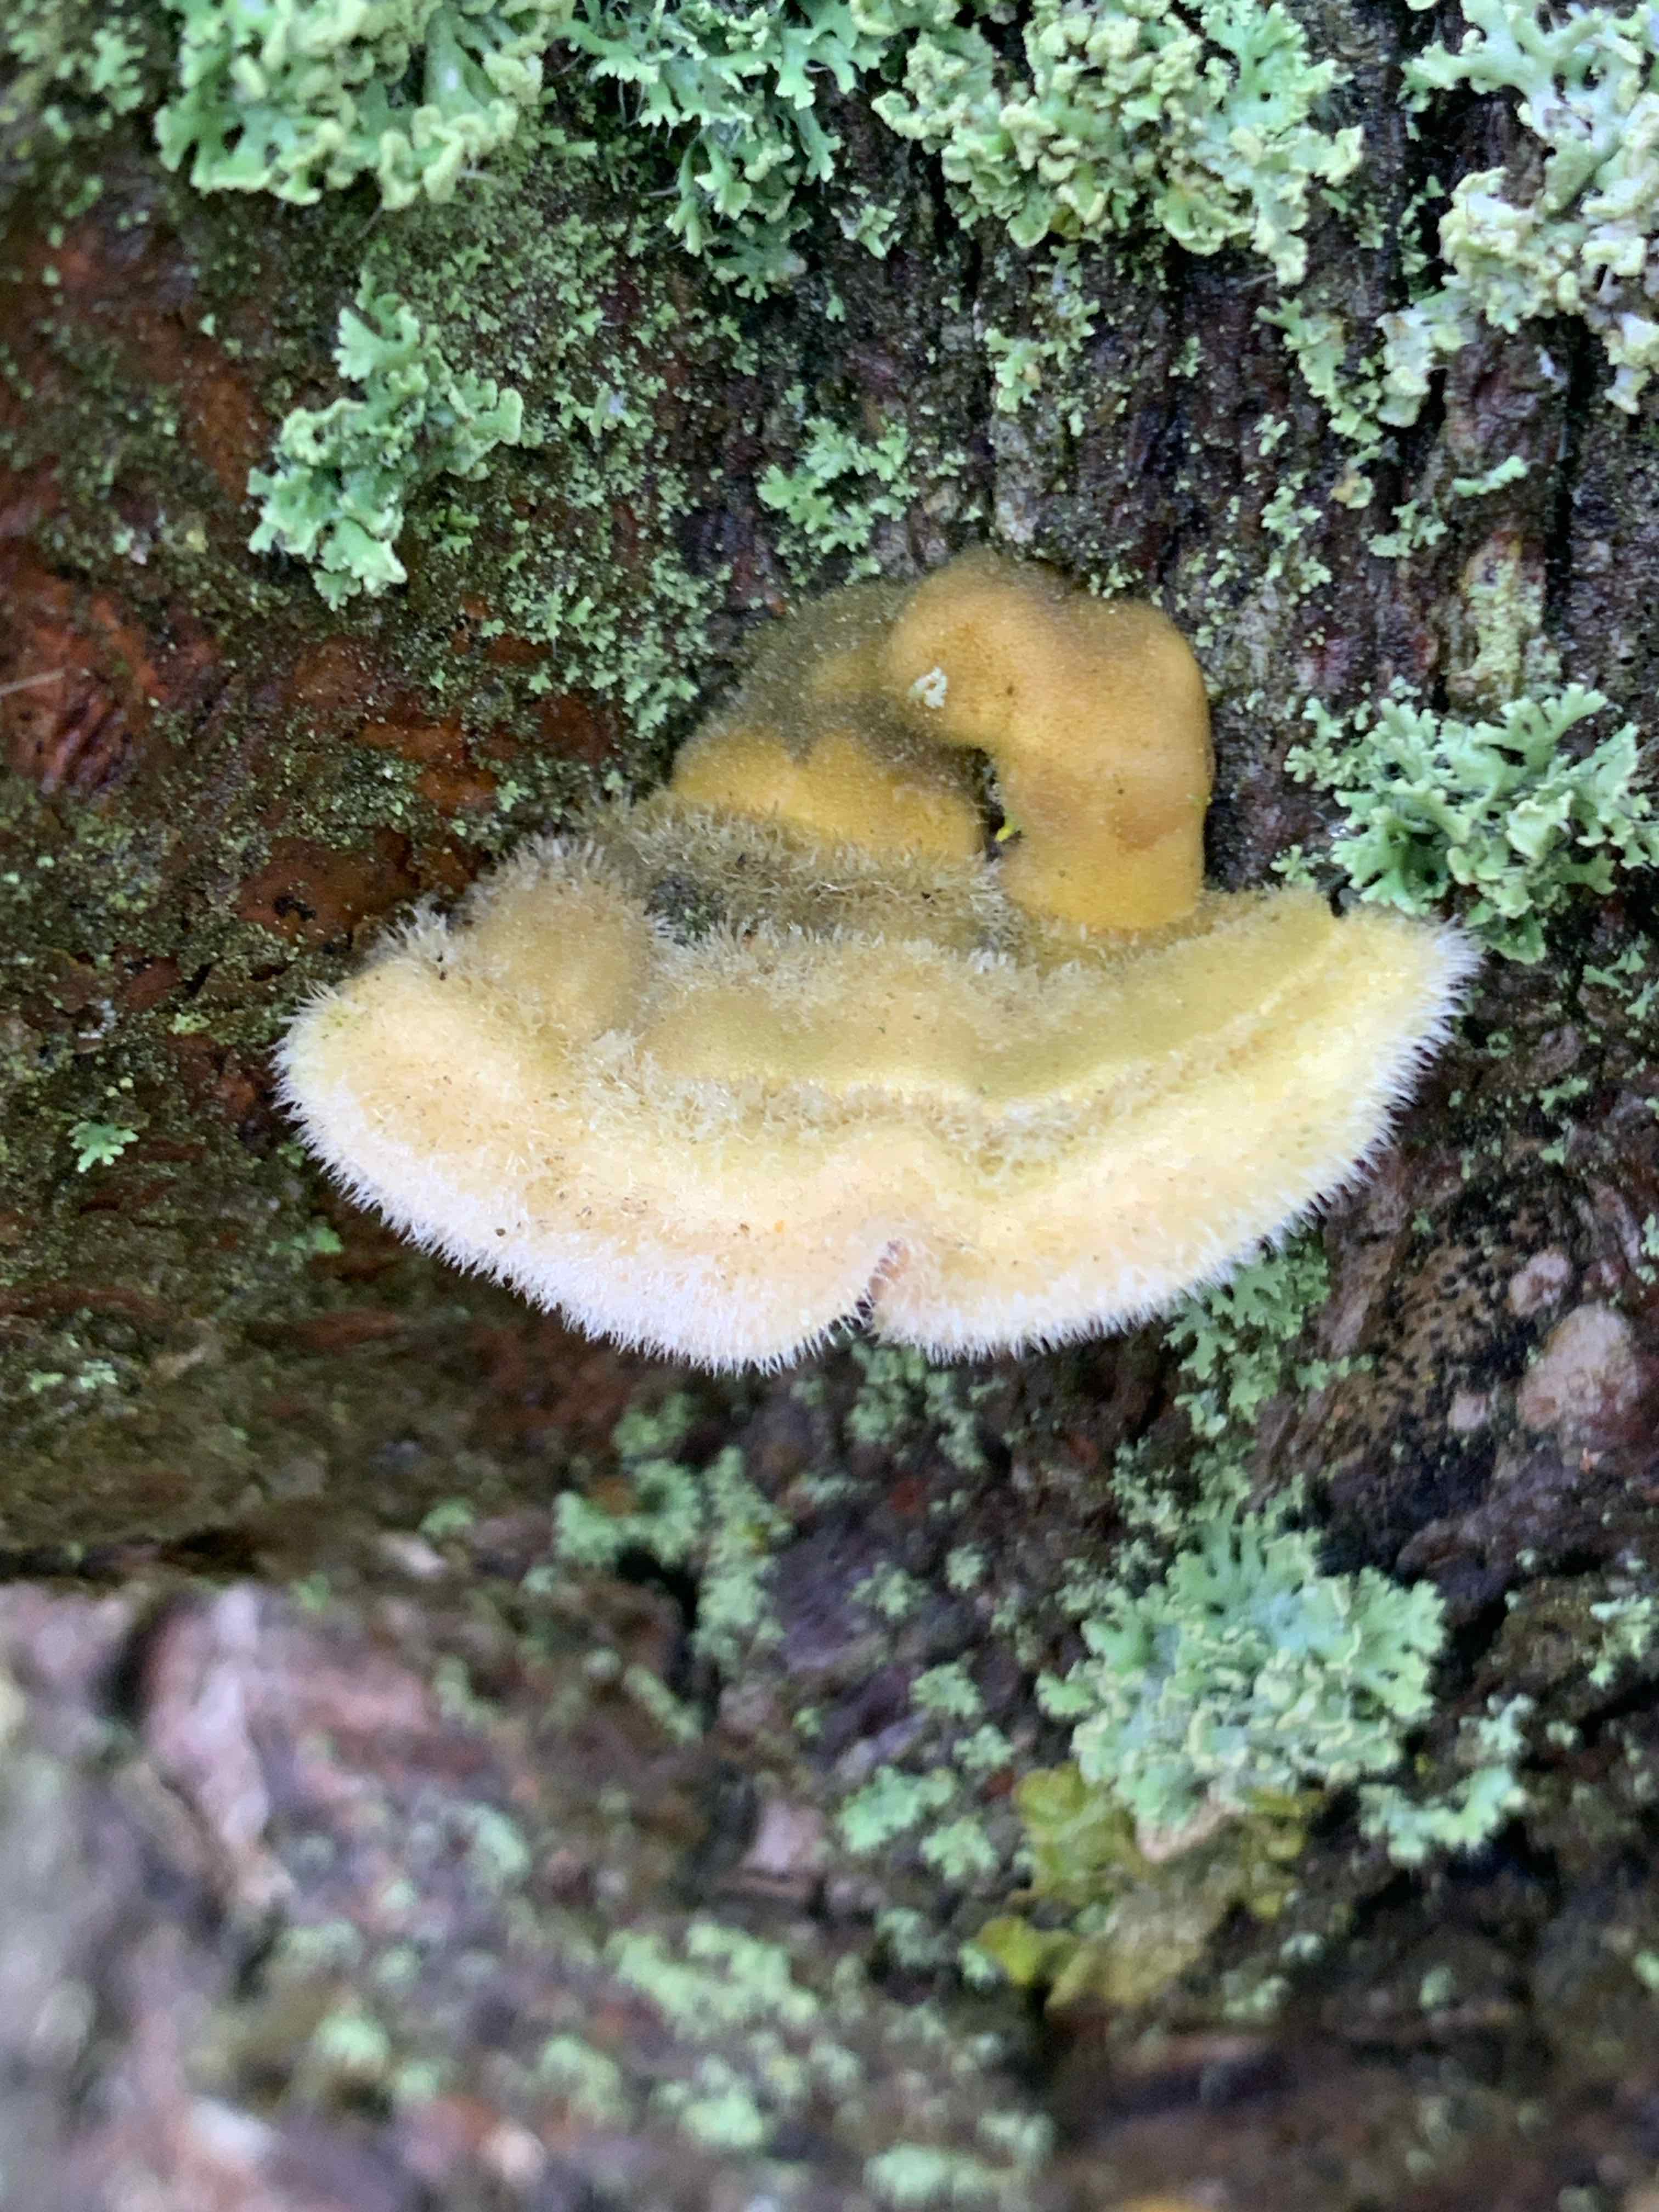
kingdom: Fungi
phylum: Basidiomycota
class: Agaricomycetes
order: Polyporales
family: Polyporaceae
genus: Trametes
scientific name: Trametes hirsuta
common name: håret læderporesvamp
